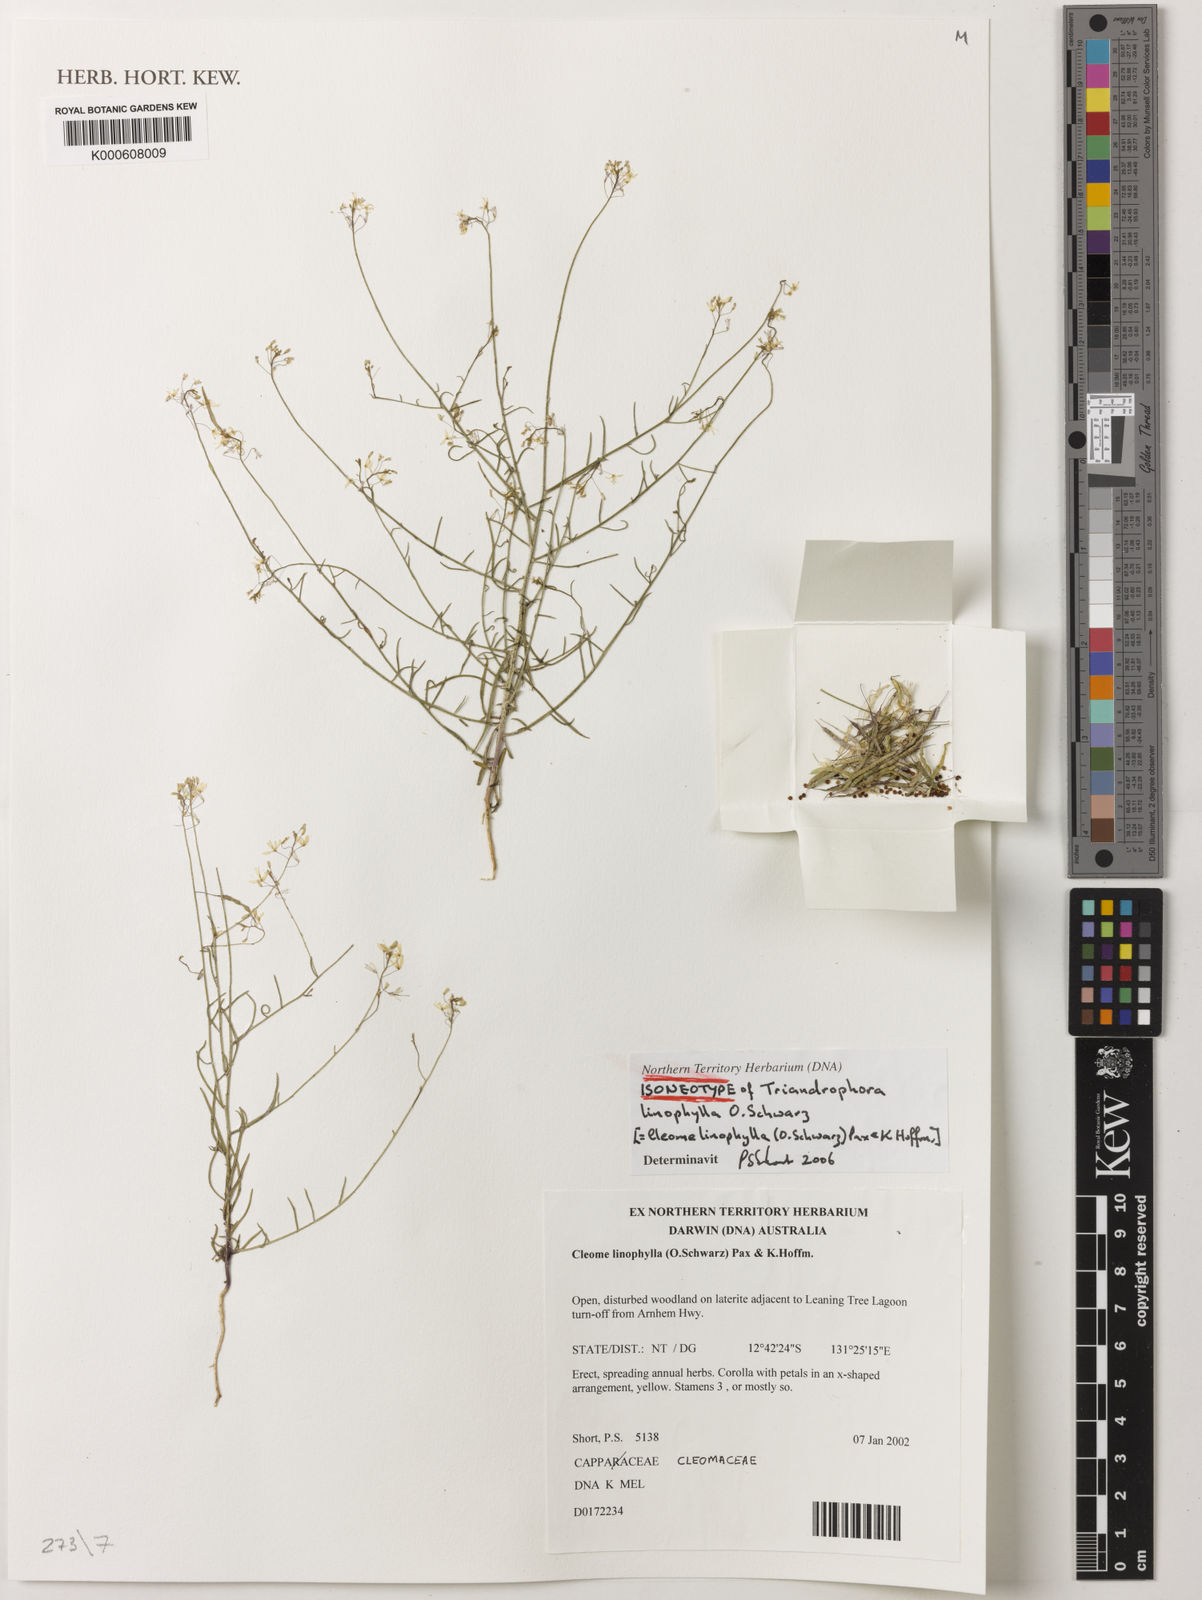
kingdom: Plantae
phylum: Tracheophyta
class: Magnoliopsida
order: Brassicales
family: Cleomaceae
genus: Arivela
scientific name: Arivela linophylla
